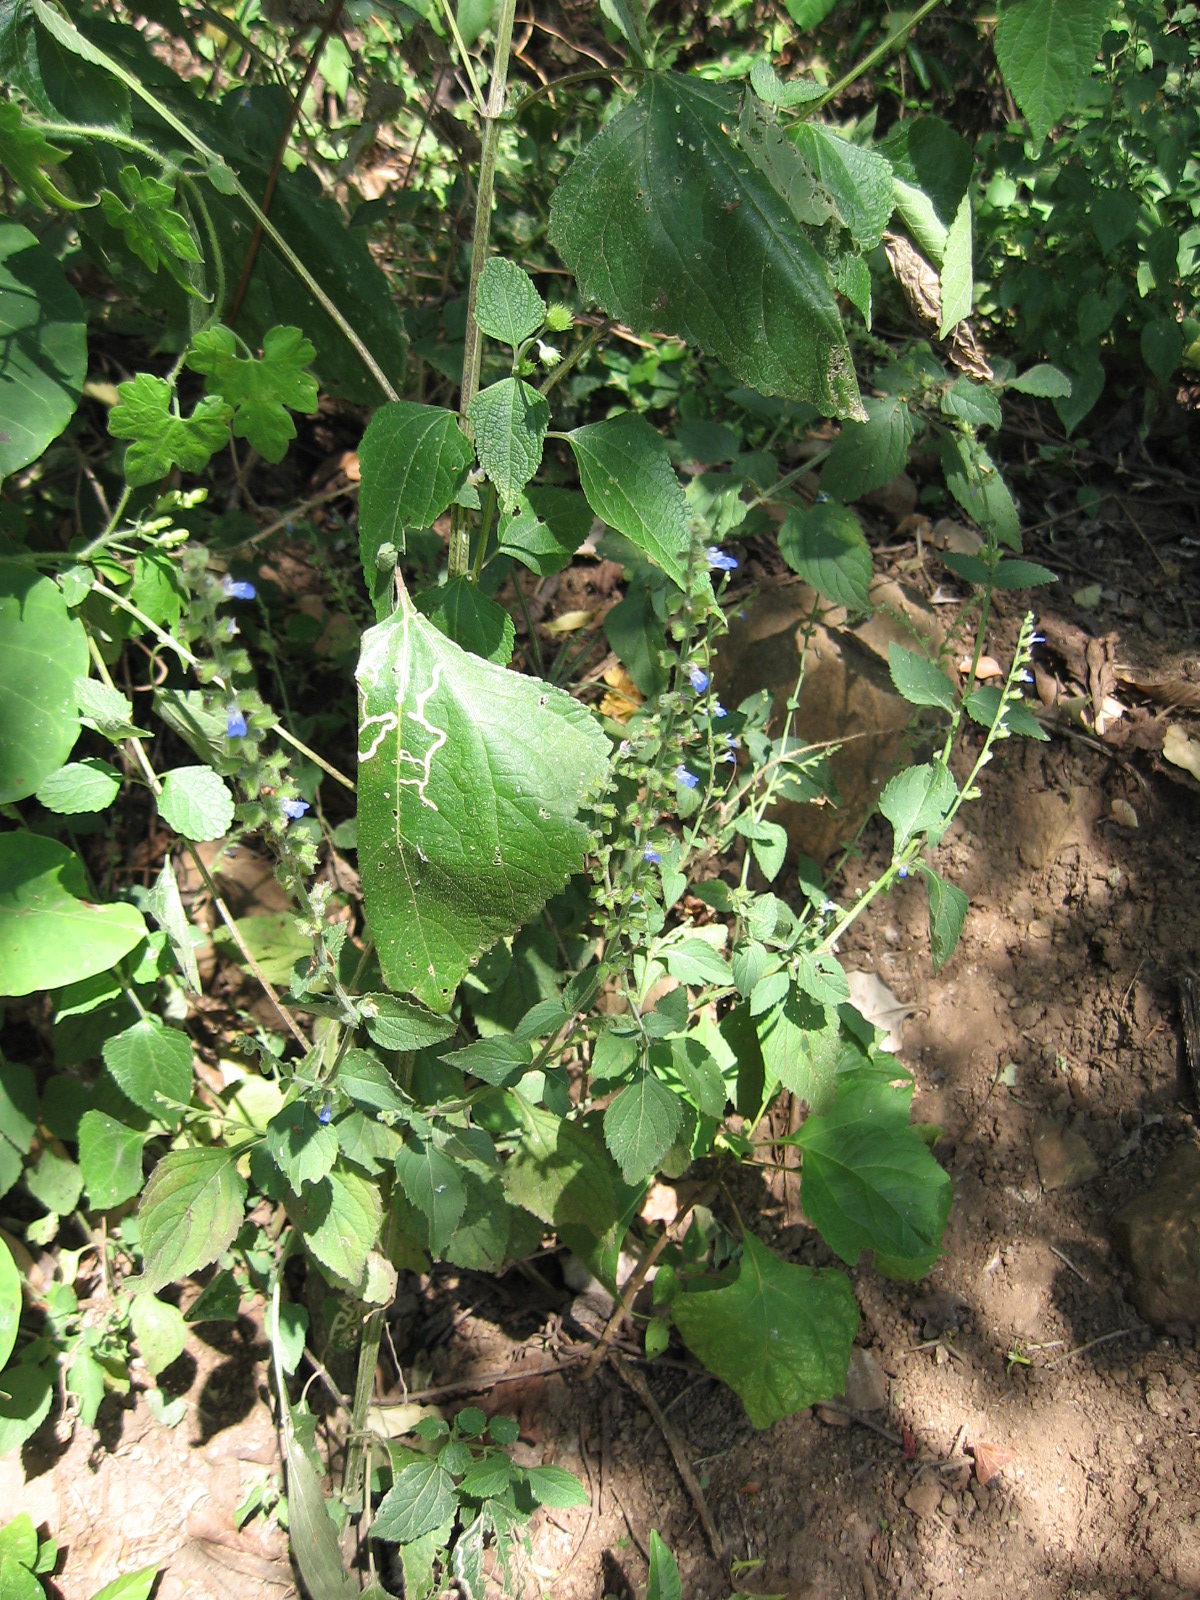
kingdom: Plantae
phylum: Tracheophyta
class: Magnoliopsida
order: Lamiales
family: Lamiaceae
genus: Salvia
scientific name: Salvia misella
